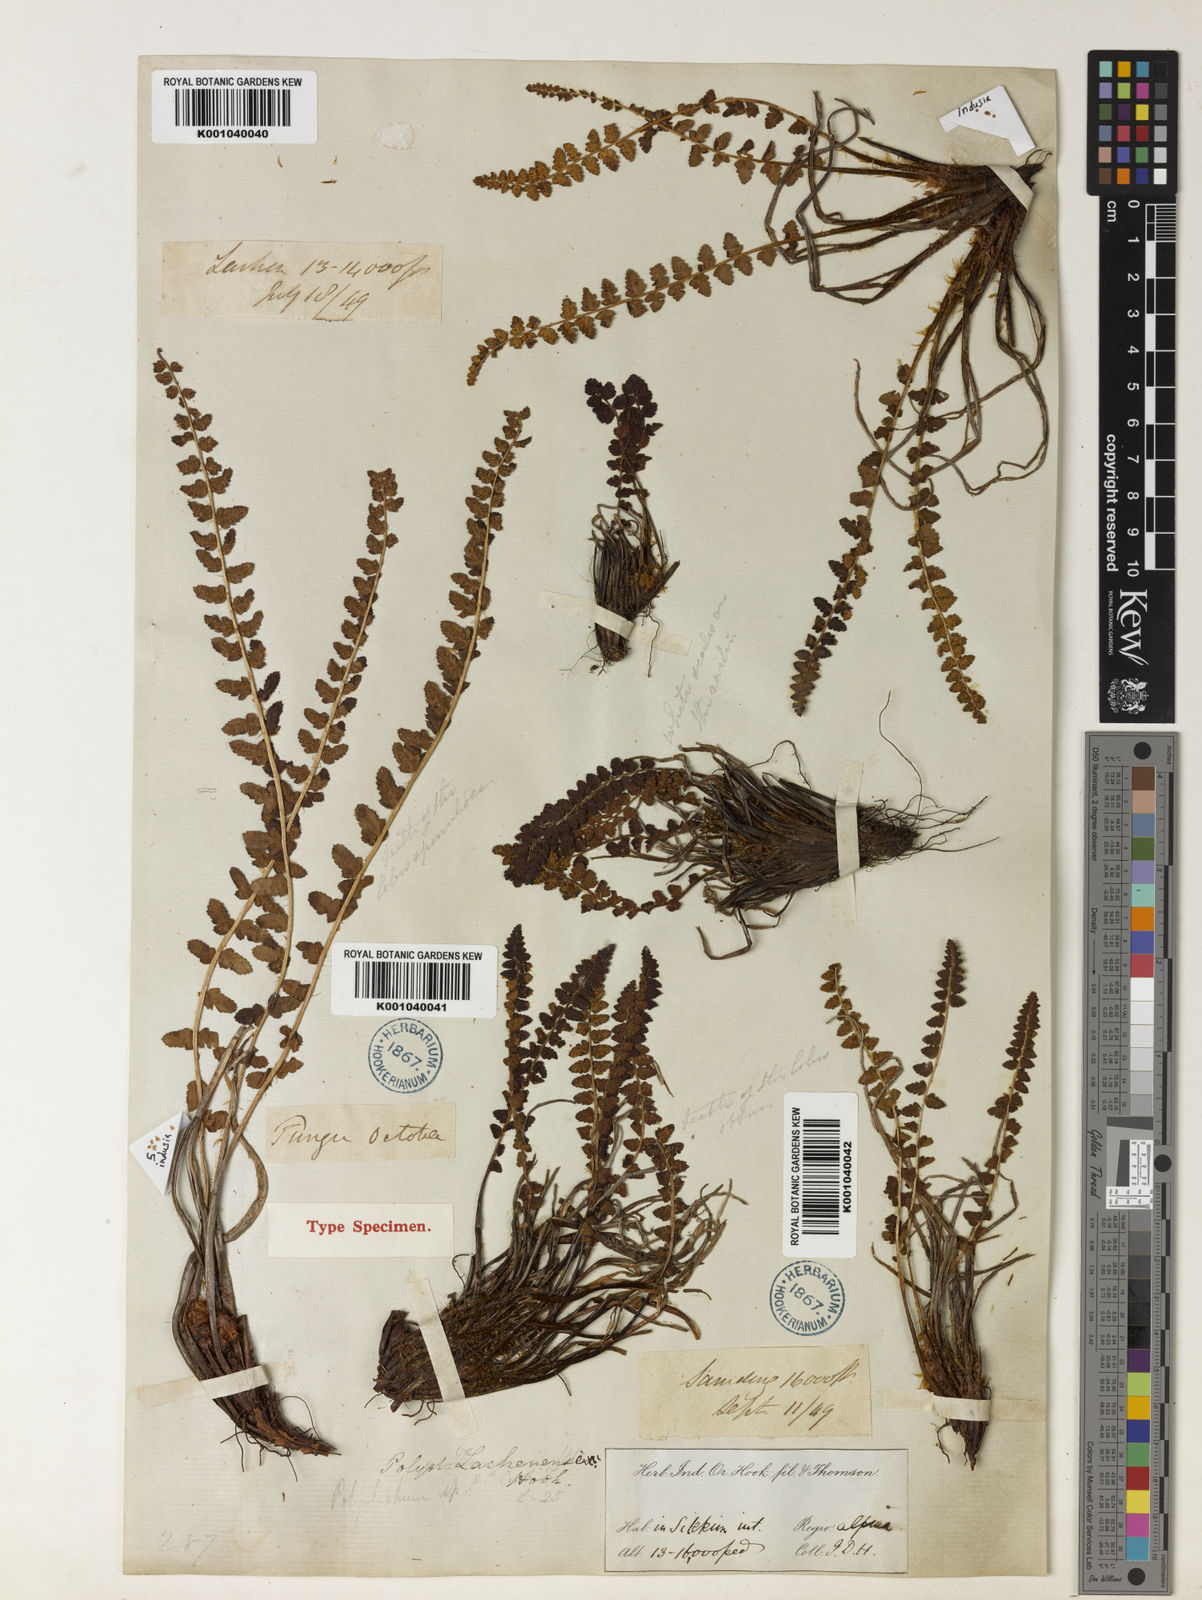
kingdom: Plantae
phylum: Tracheophyta
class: Polypodiopsida
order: Polypodiales
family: Dryopteridaceae
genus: Polystichum
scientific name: Polystichum lachenense
